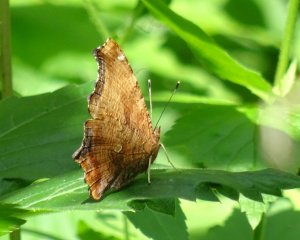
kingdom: Animalia
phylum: Arthropoda
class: Insecta
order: Lepidoptera
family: Nymphalidae
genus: Polygonia
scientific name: Polygonia comma
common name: Eastern Comma
